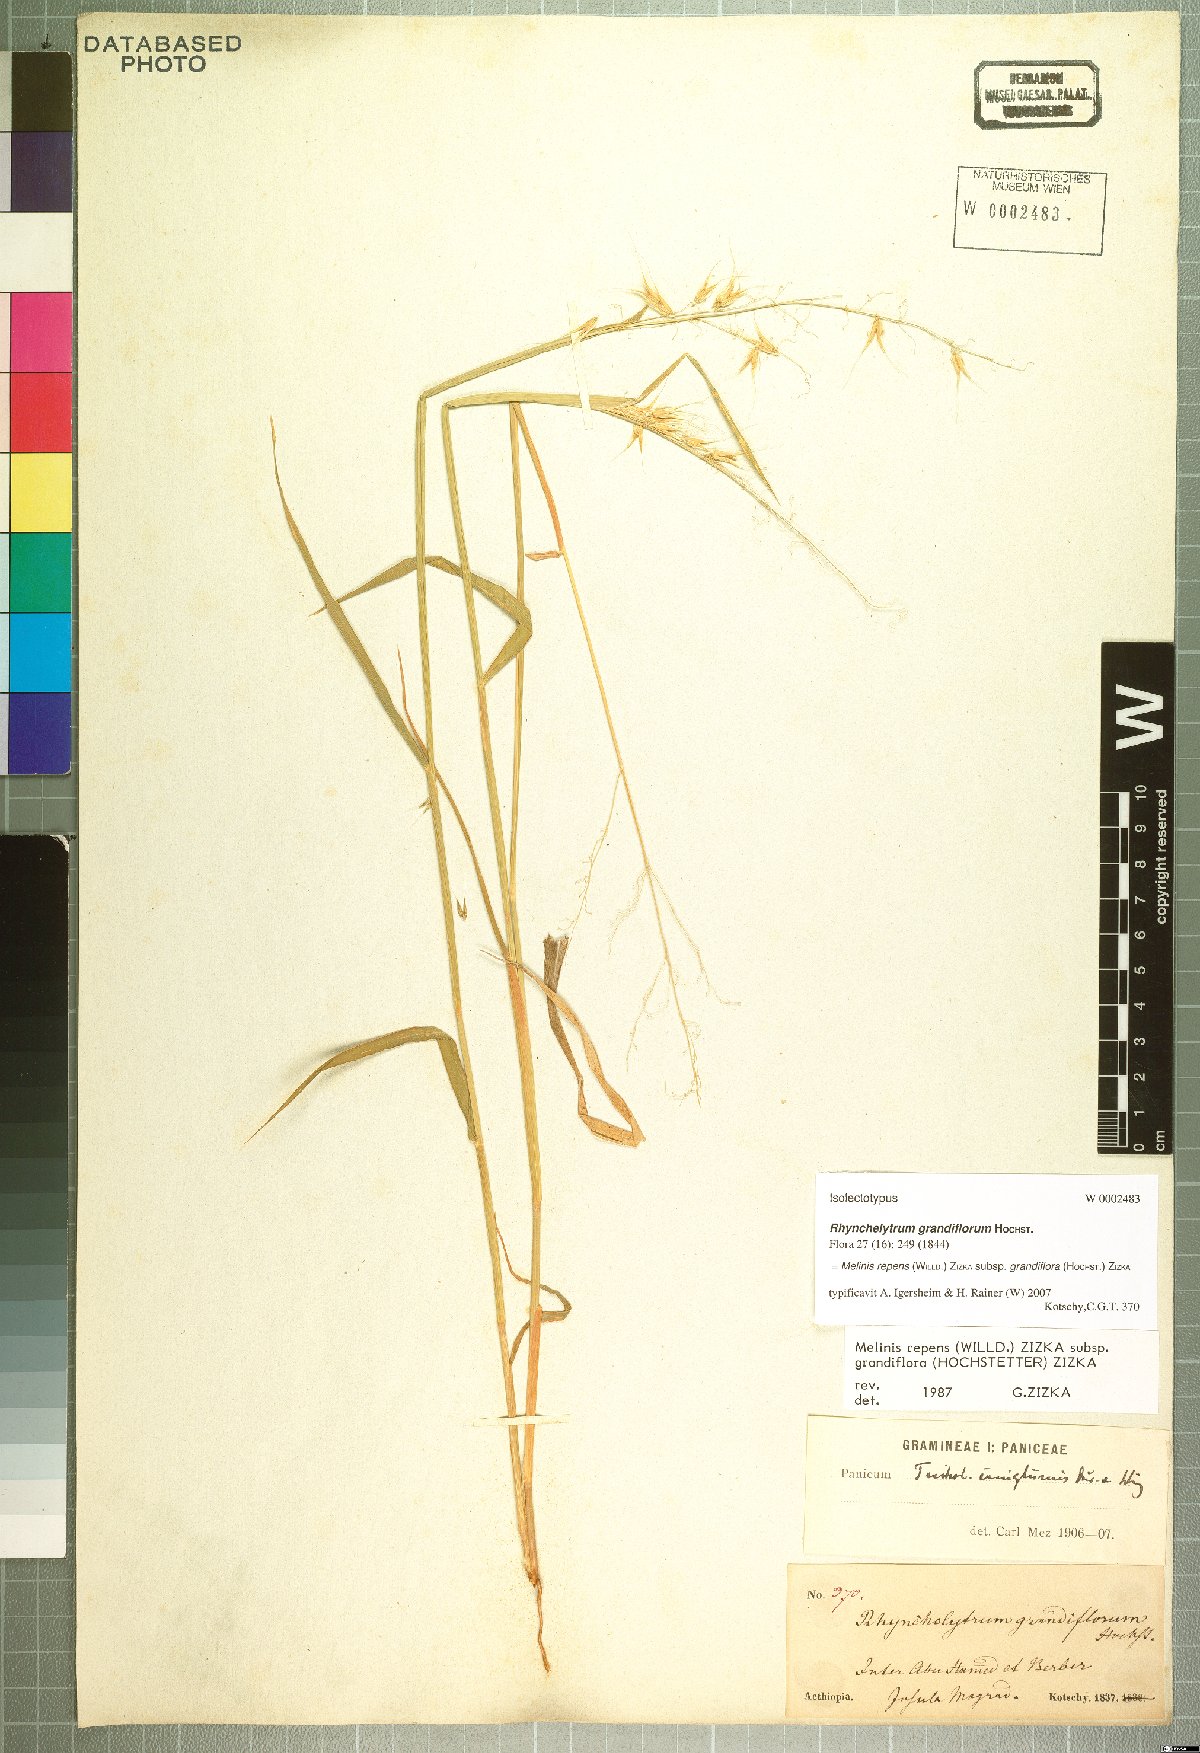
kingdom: Plantae
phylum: Tracheophyta
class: Liliopsida
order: Poales
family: Poaceae
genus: Melinis
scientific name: Melinis repens
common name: Rose natal grass
